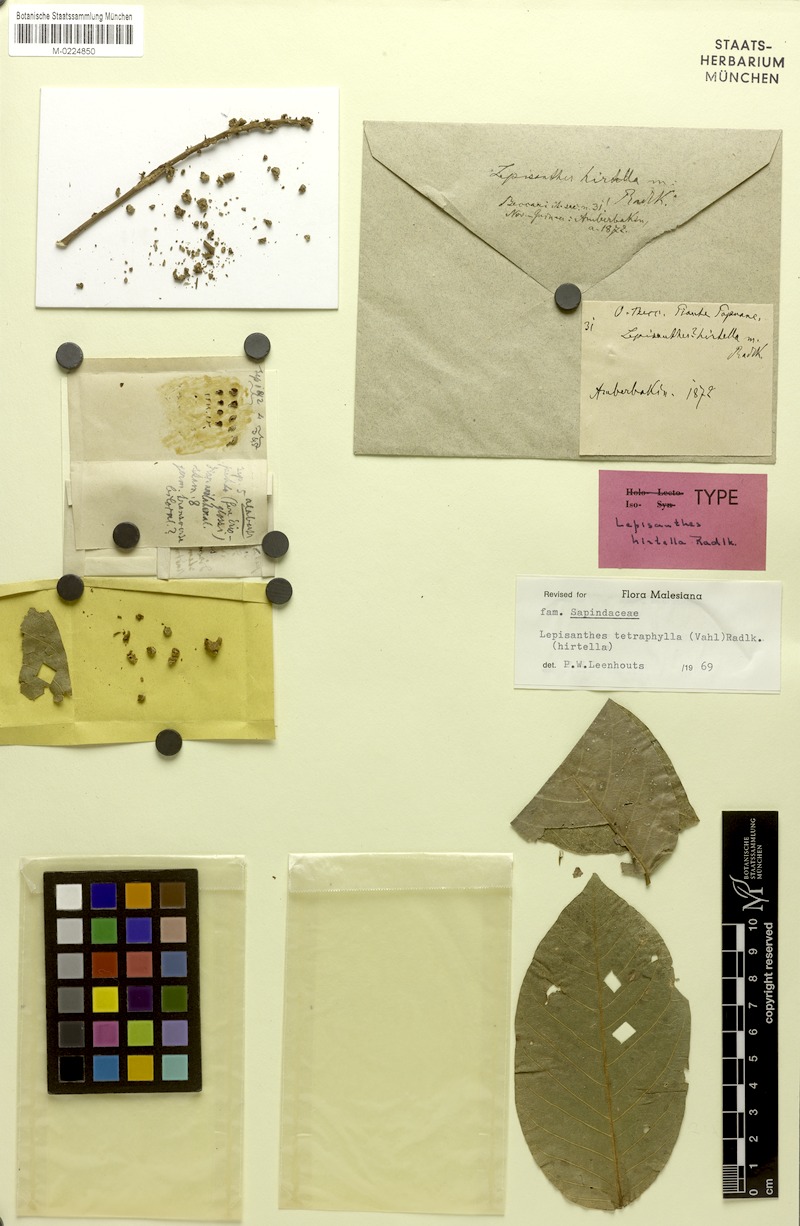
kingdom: Plantae
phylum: Tracheophyta
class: Magnoliopsida
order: Sapindales
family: Sapindaceae
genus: Lepisanthes
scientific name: Lepisanthes hirtella
